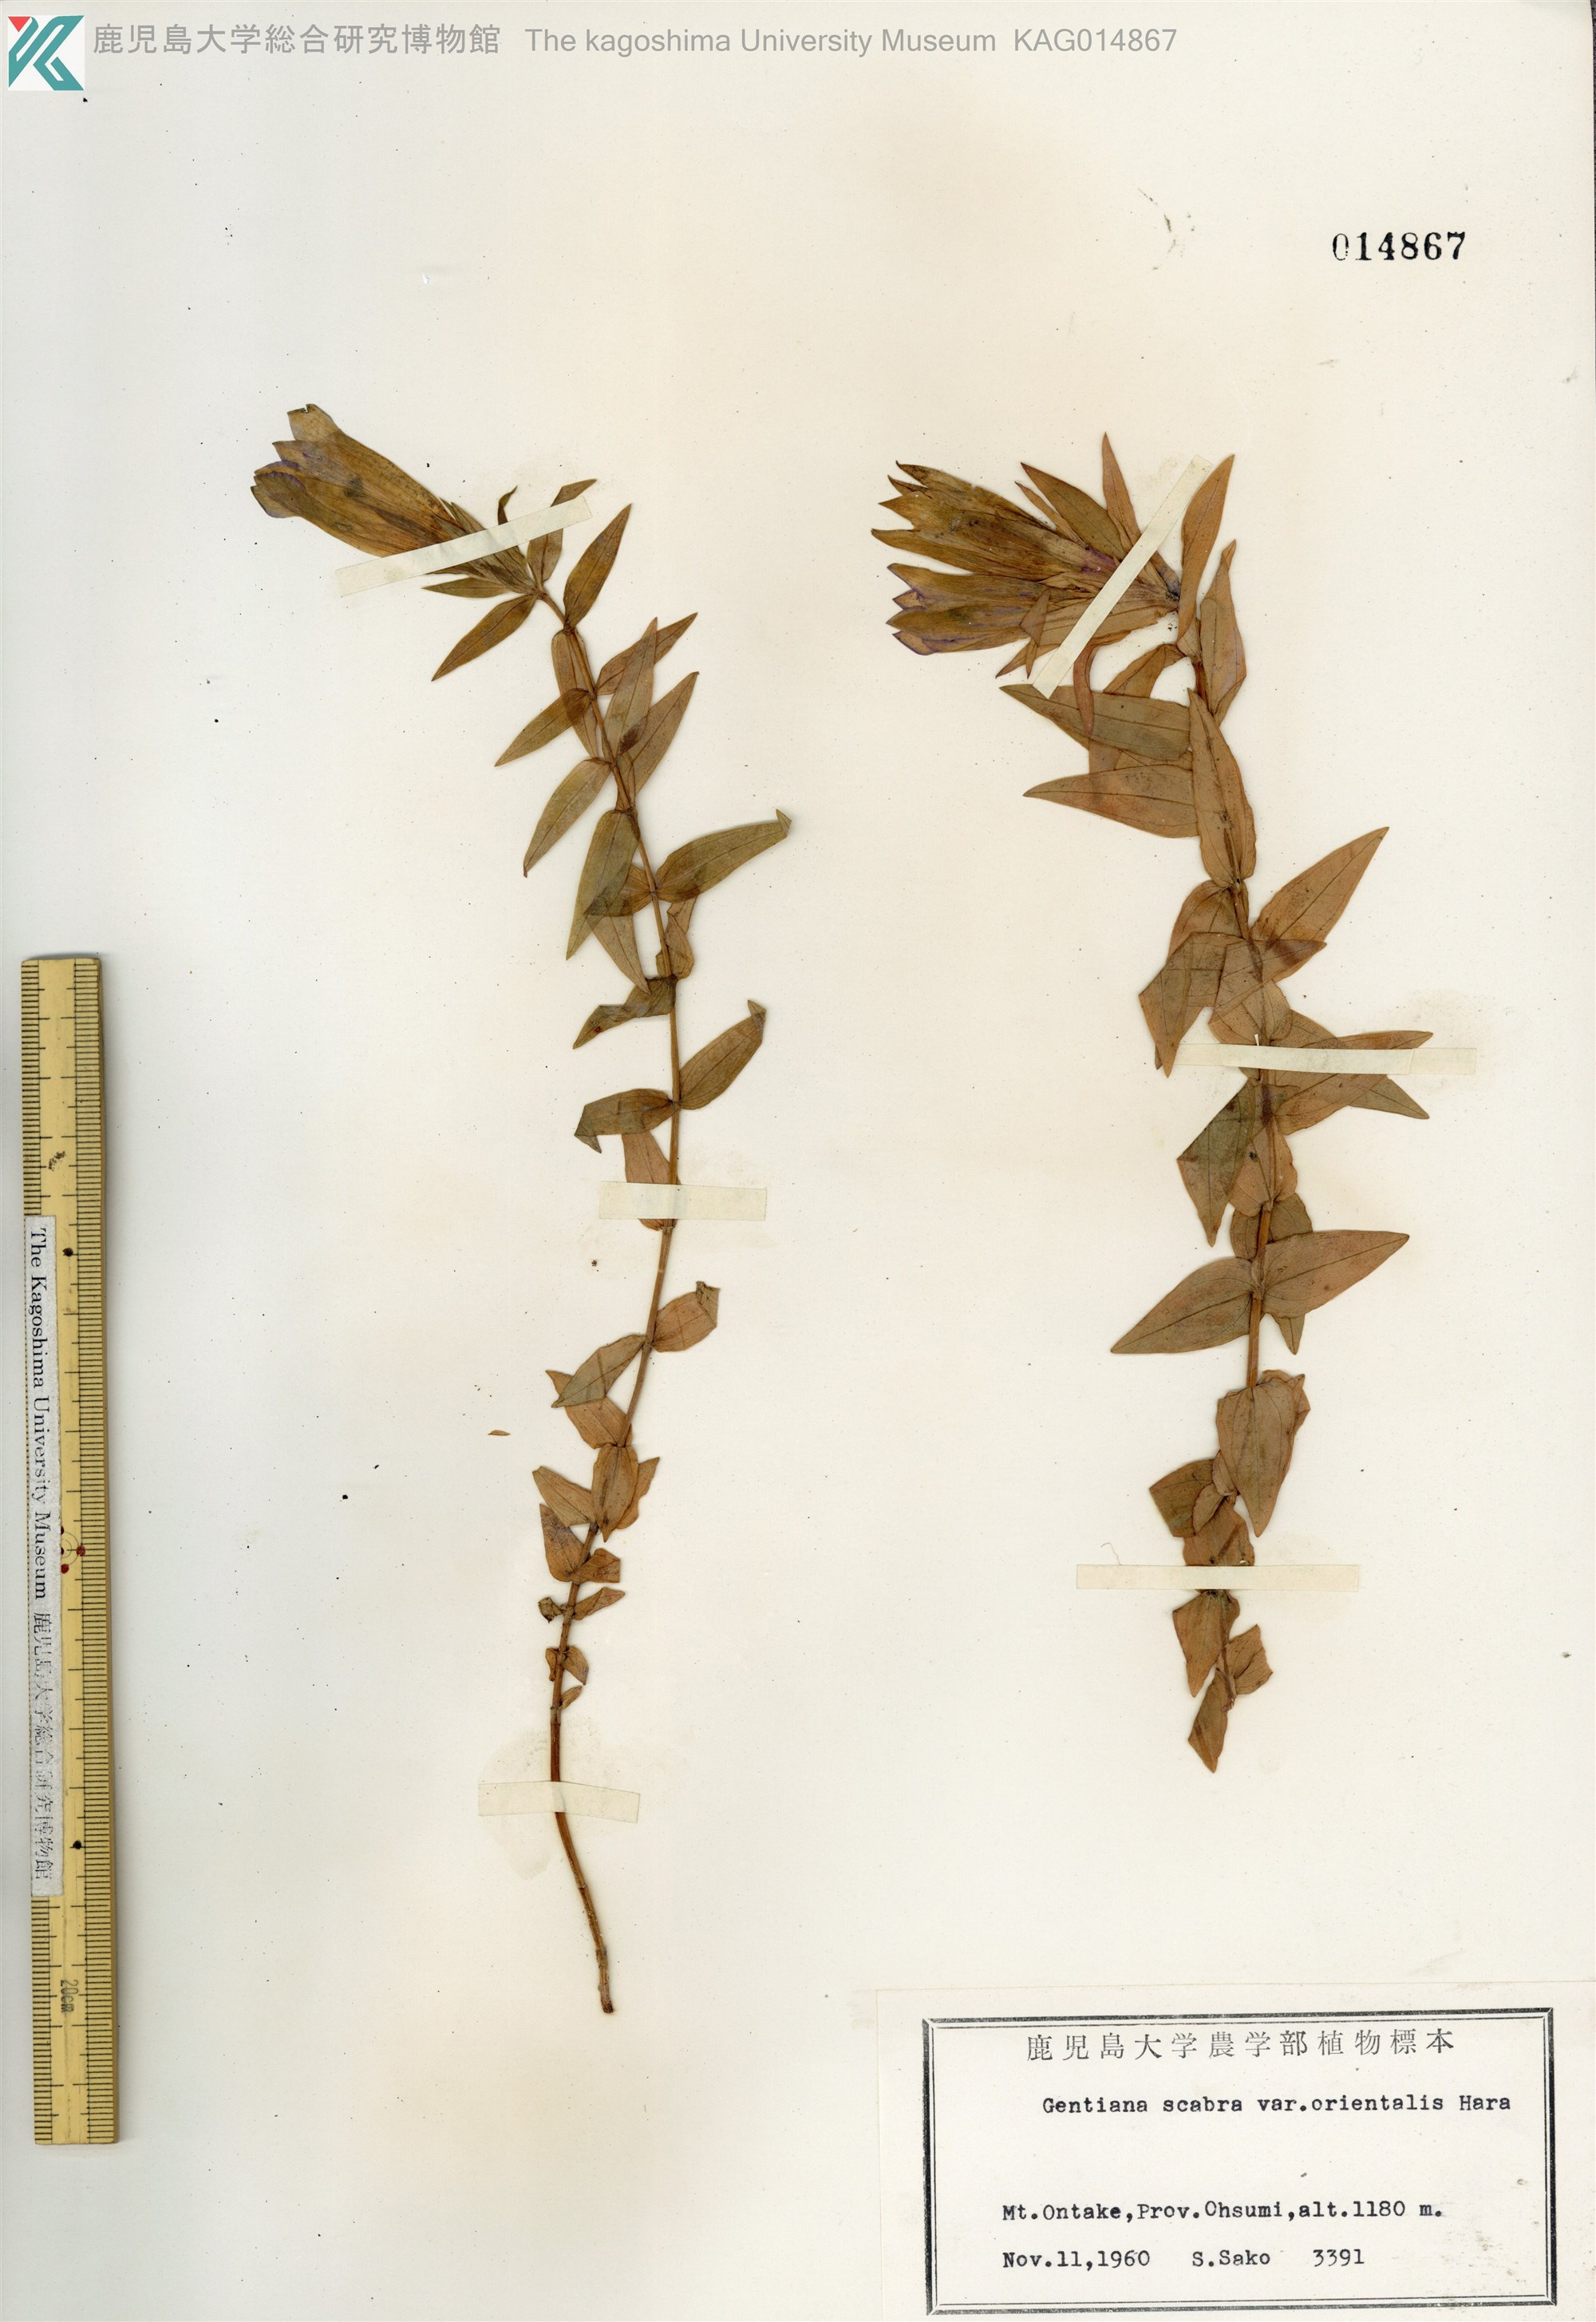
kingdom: Plantae
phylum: Tracheophyta
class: Magnoliopsida
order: Gentianales
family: Gentianaceae
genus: Gentiana
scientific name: Gentiana scabra
